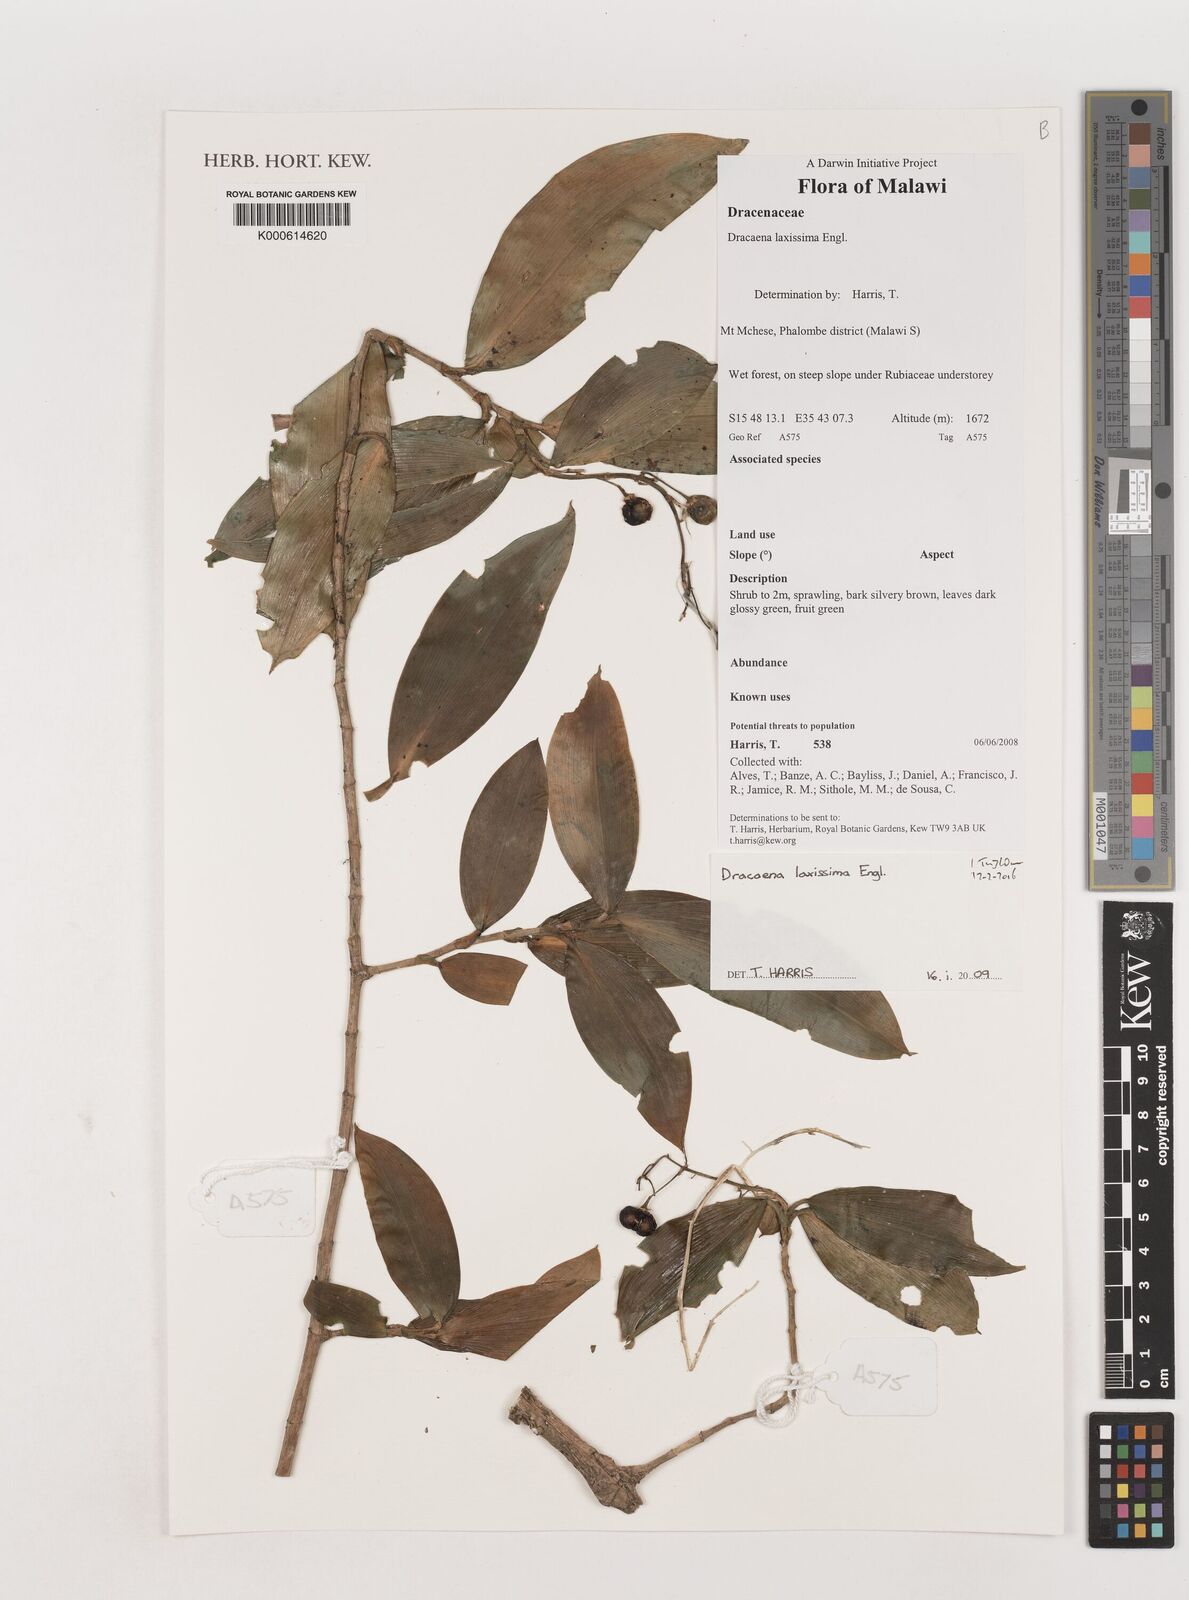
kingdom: Plantae
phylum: Tracheophyta
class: Liliopsida
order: Asparagales
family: Asparagaceae
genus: Dracaena
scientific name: Dracaena laxissima
